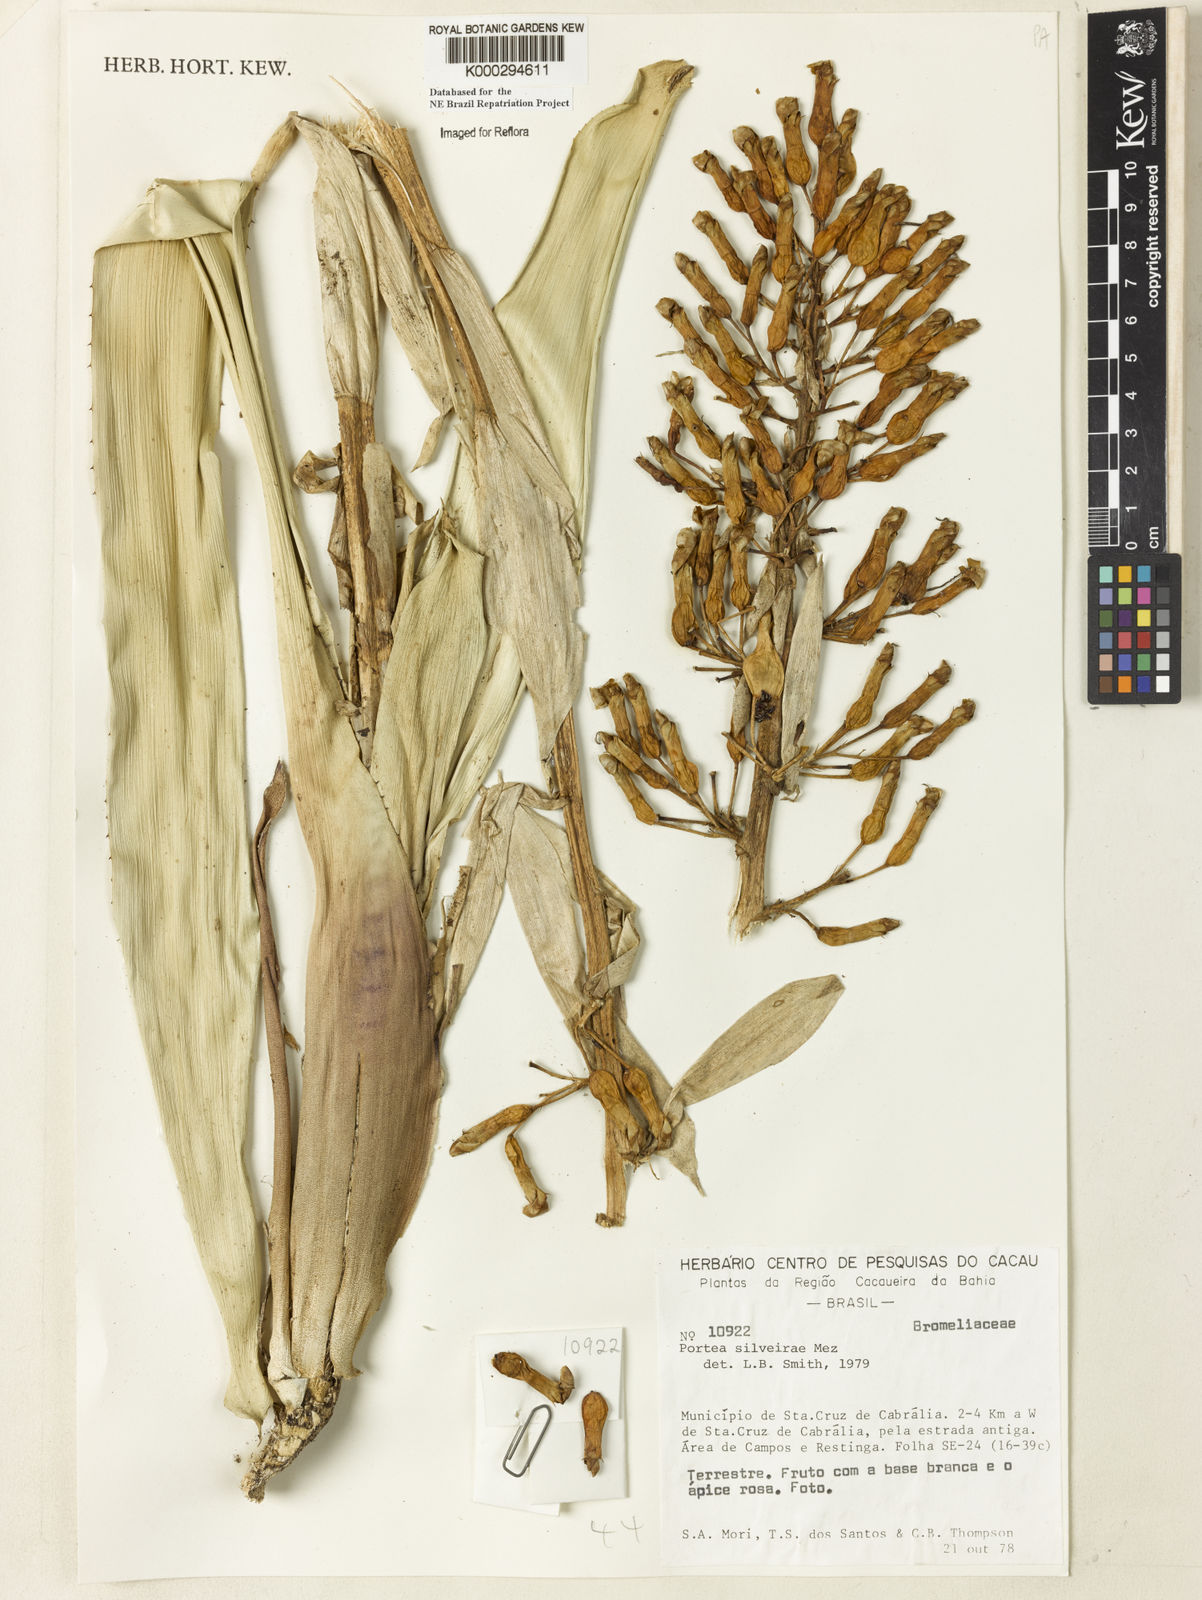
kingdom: Plantae
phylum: Tracheophyta
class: Liliopsida
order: Poales
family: Bromeliaceae
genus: Portea
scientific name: Portea silveirae
